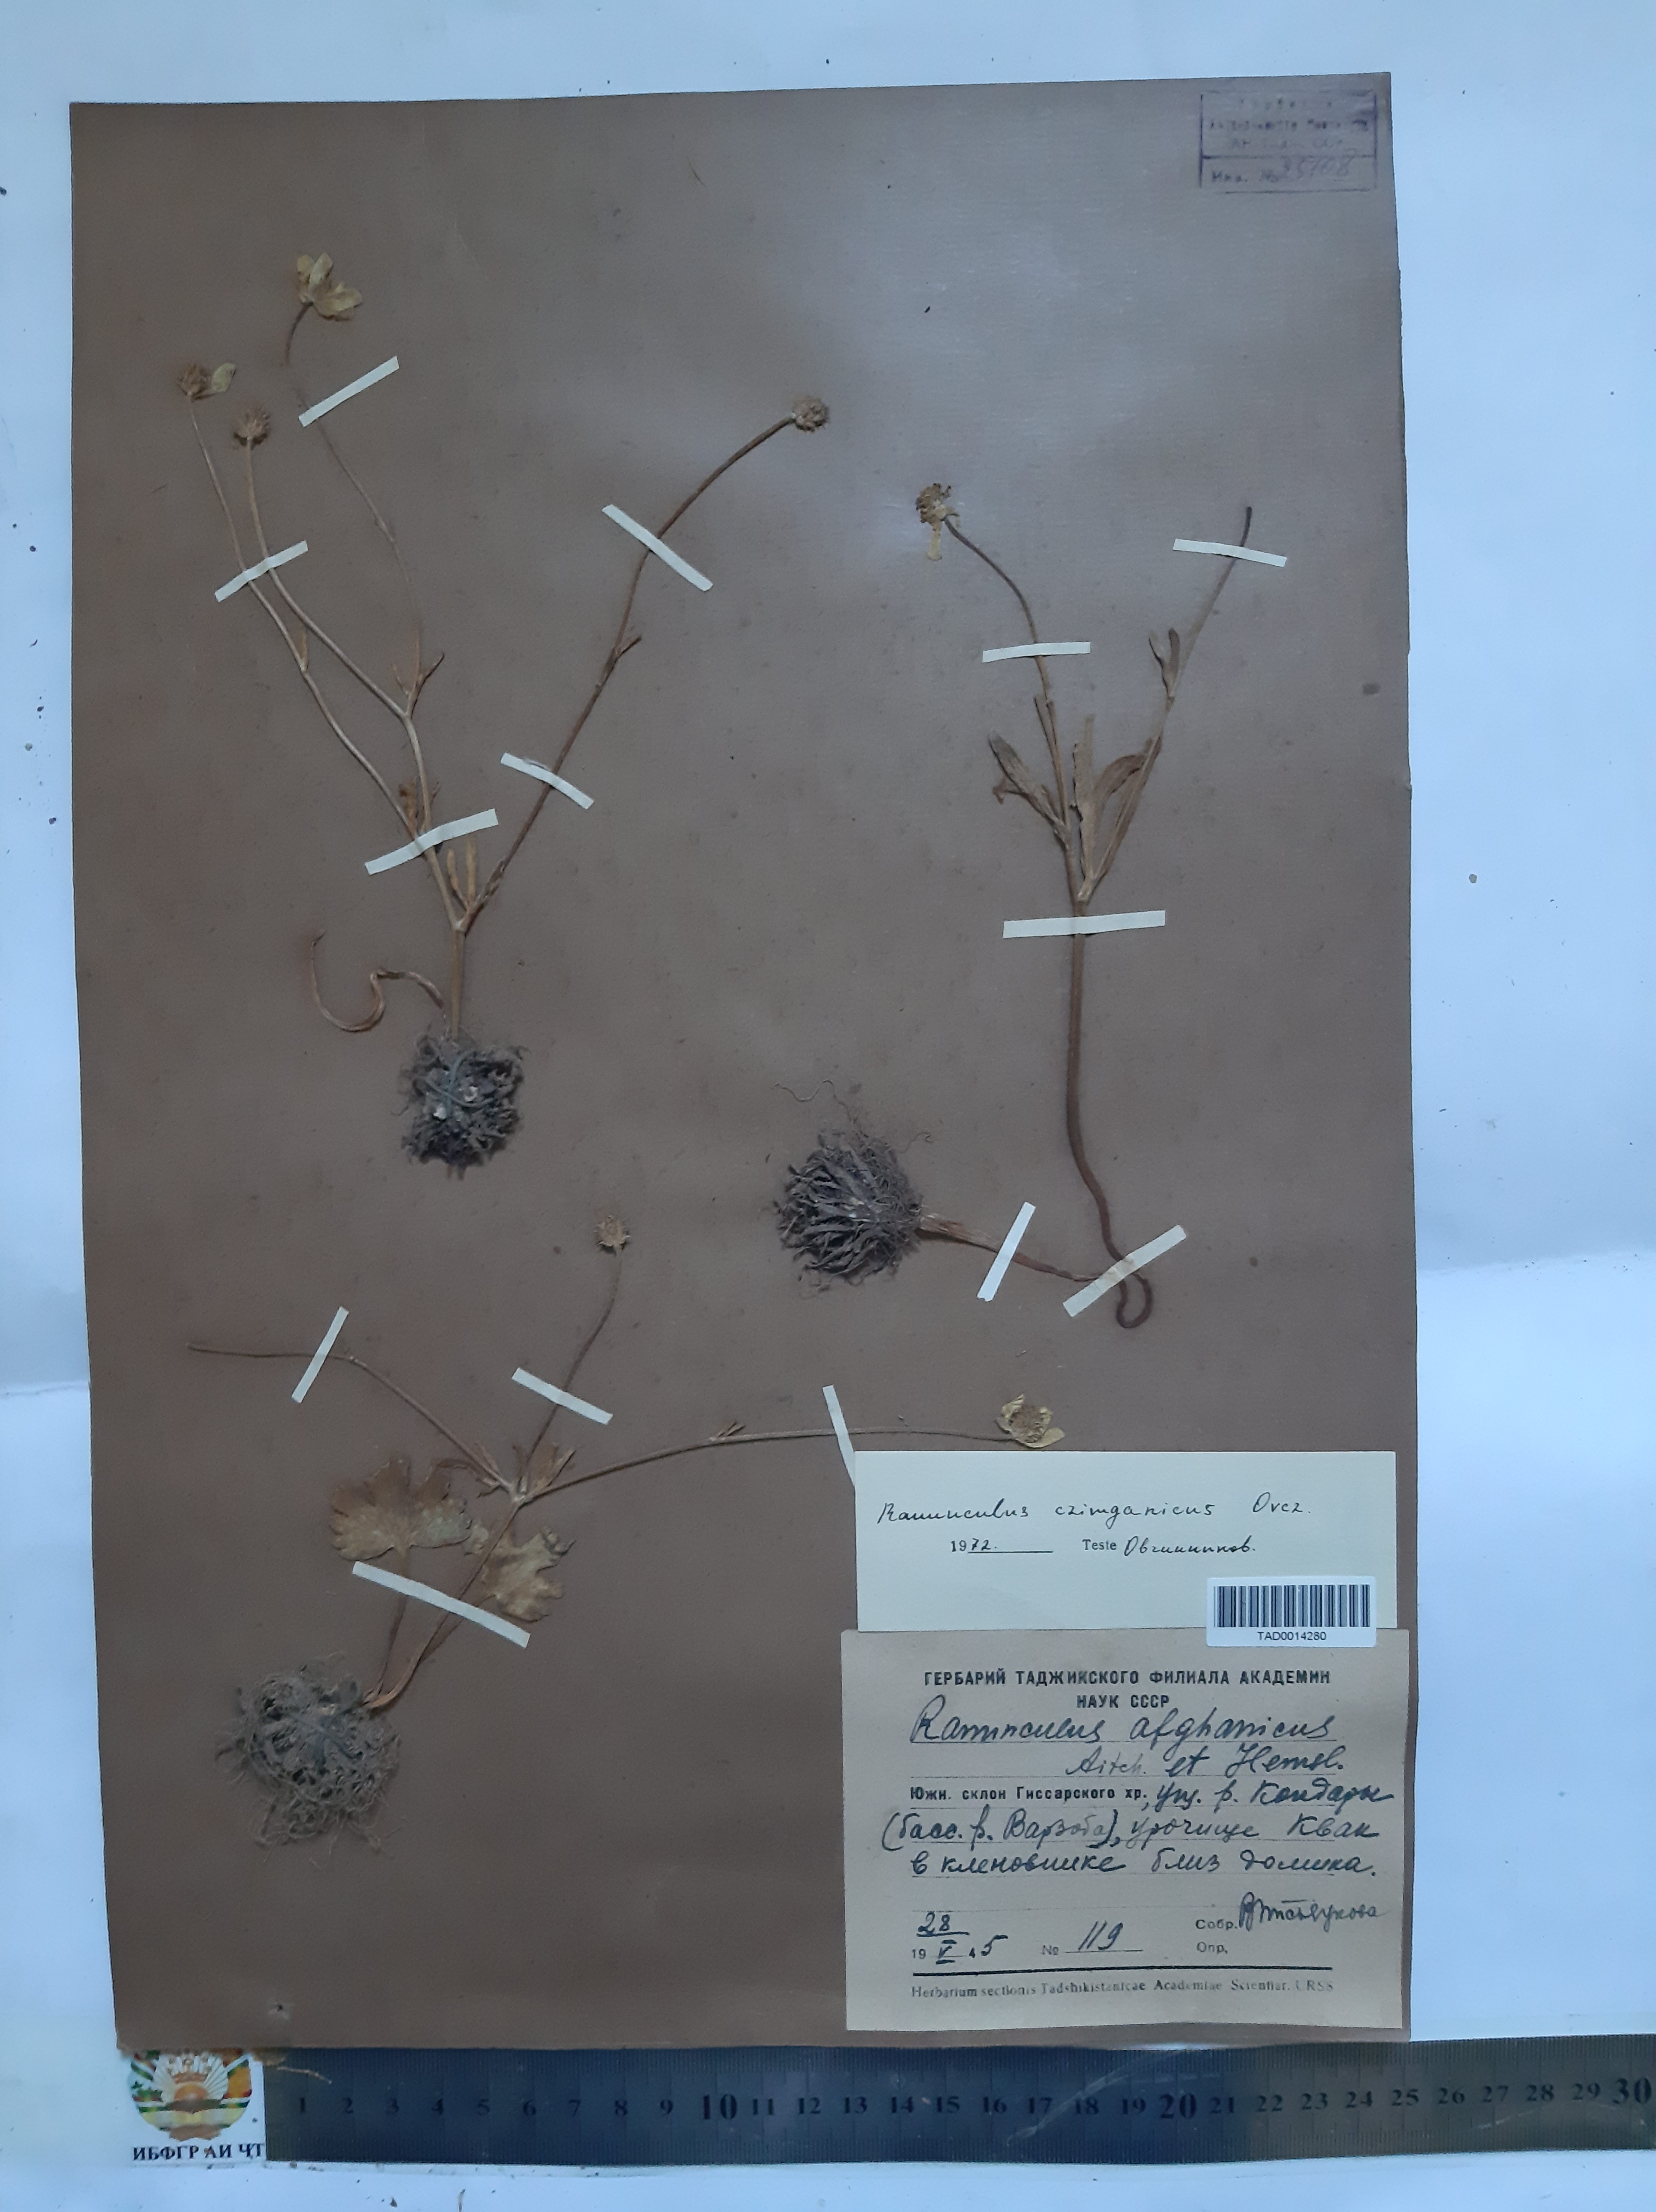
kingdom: Plantae
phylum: Tracheophyta
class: Magnoliopsida
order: Ranunculales
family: Ranunculaceae
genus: Ranunculus
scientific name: Ranunculus czimganicus
